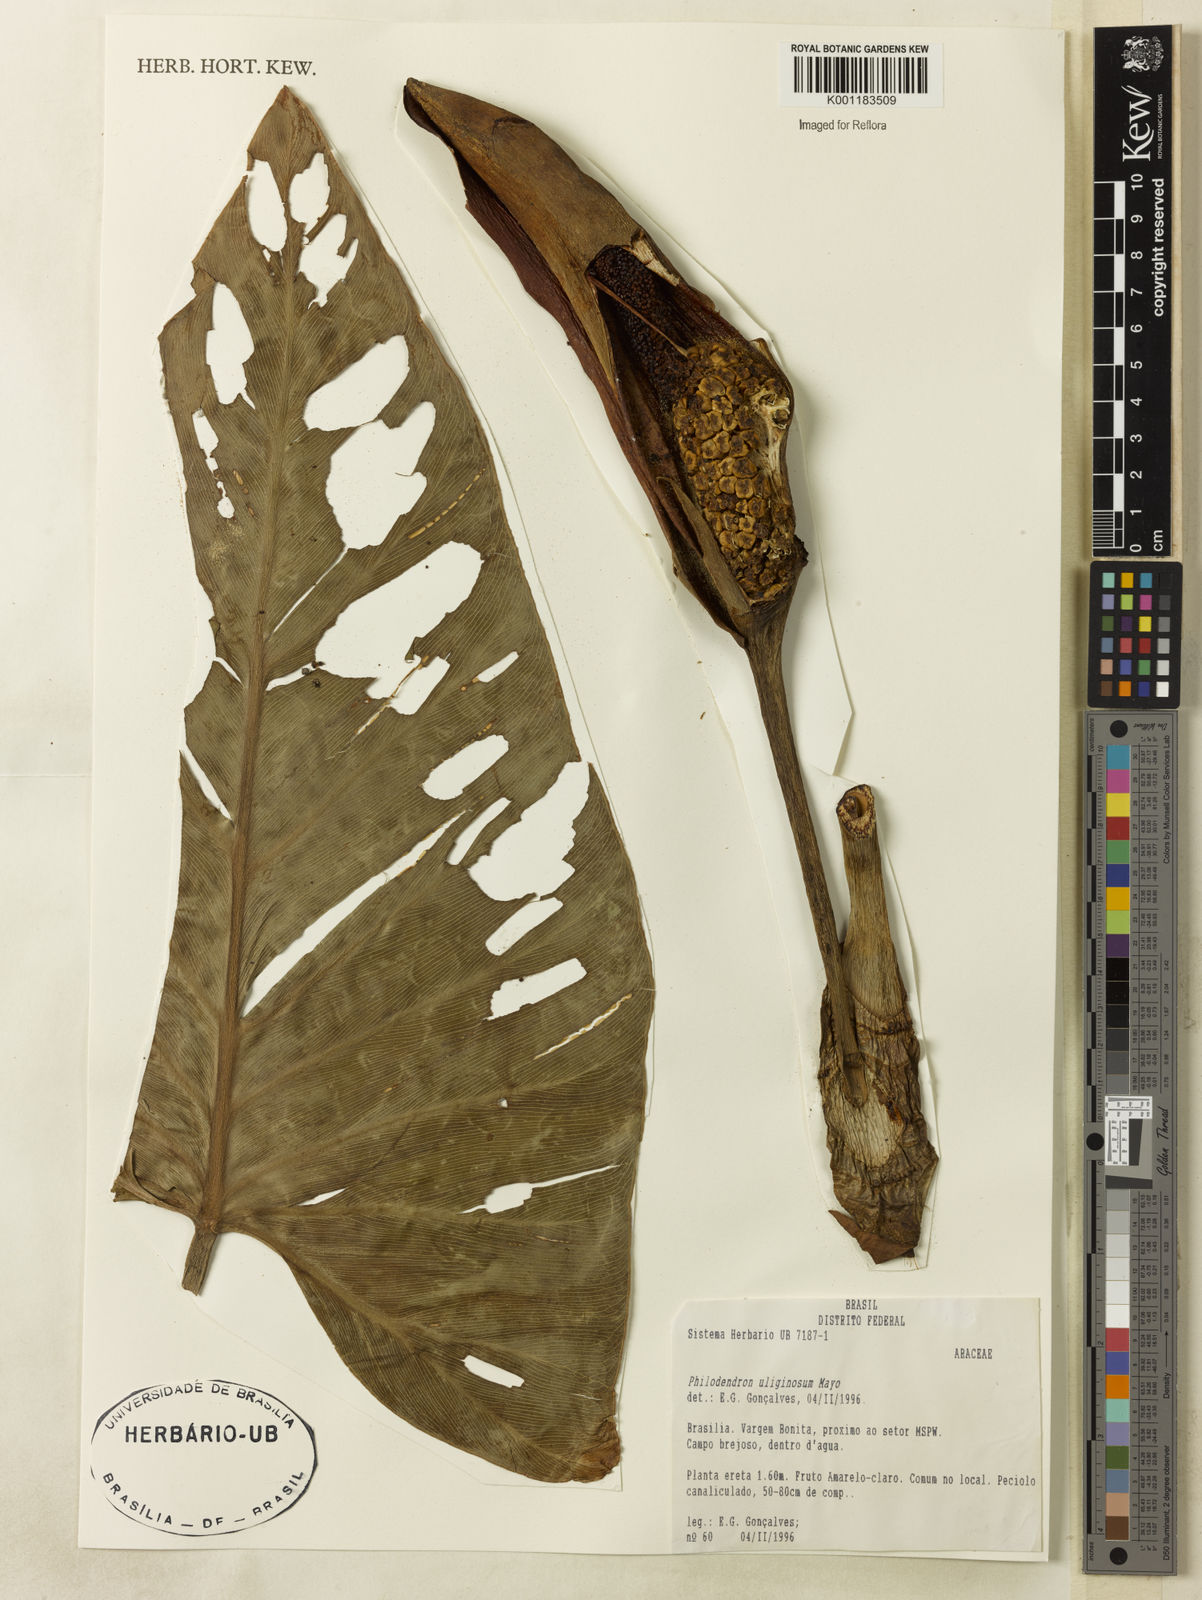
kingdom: Plantae
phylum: Tracheophyta
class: Liliopsida
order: Alismatales
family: Araceae
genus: Thaumatophyllum
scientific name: Thaumatophyllum uliginosum
